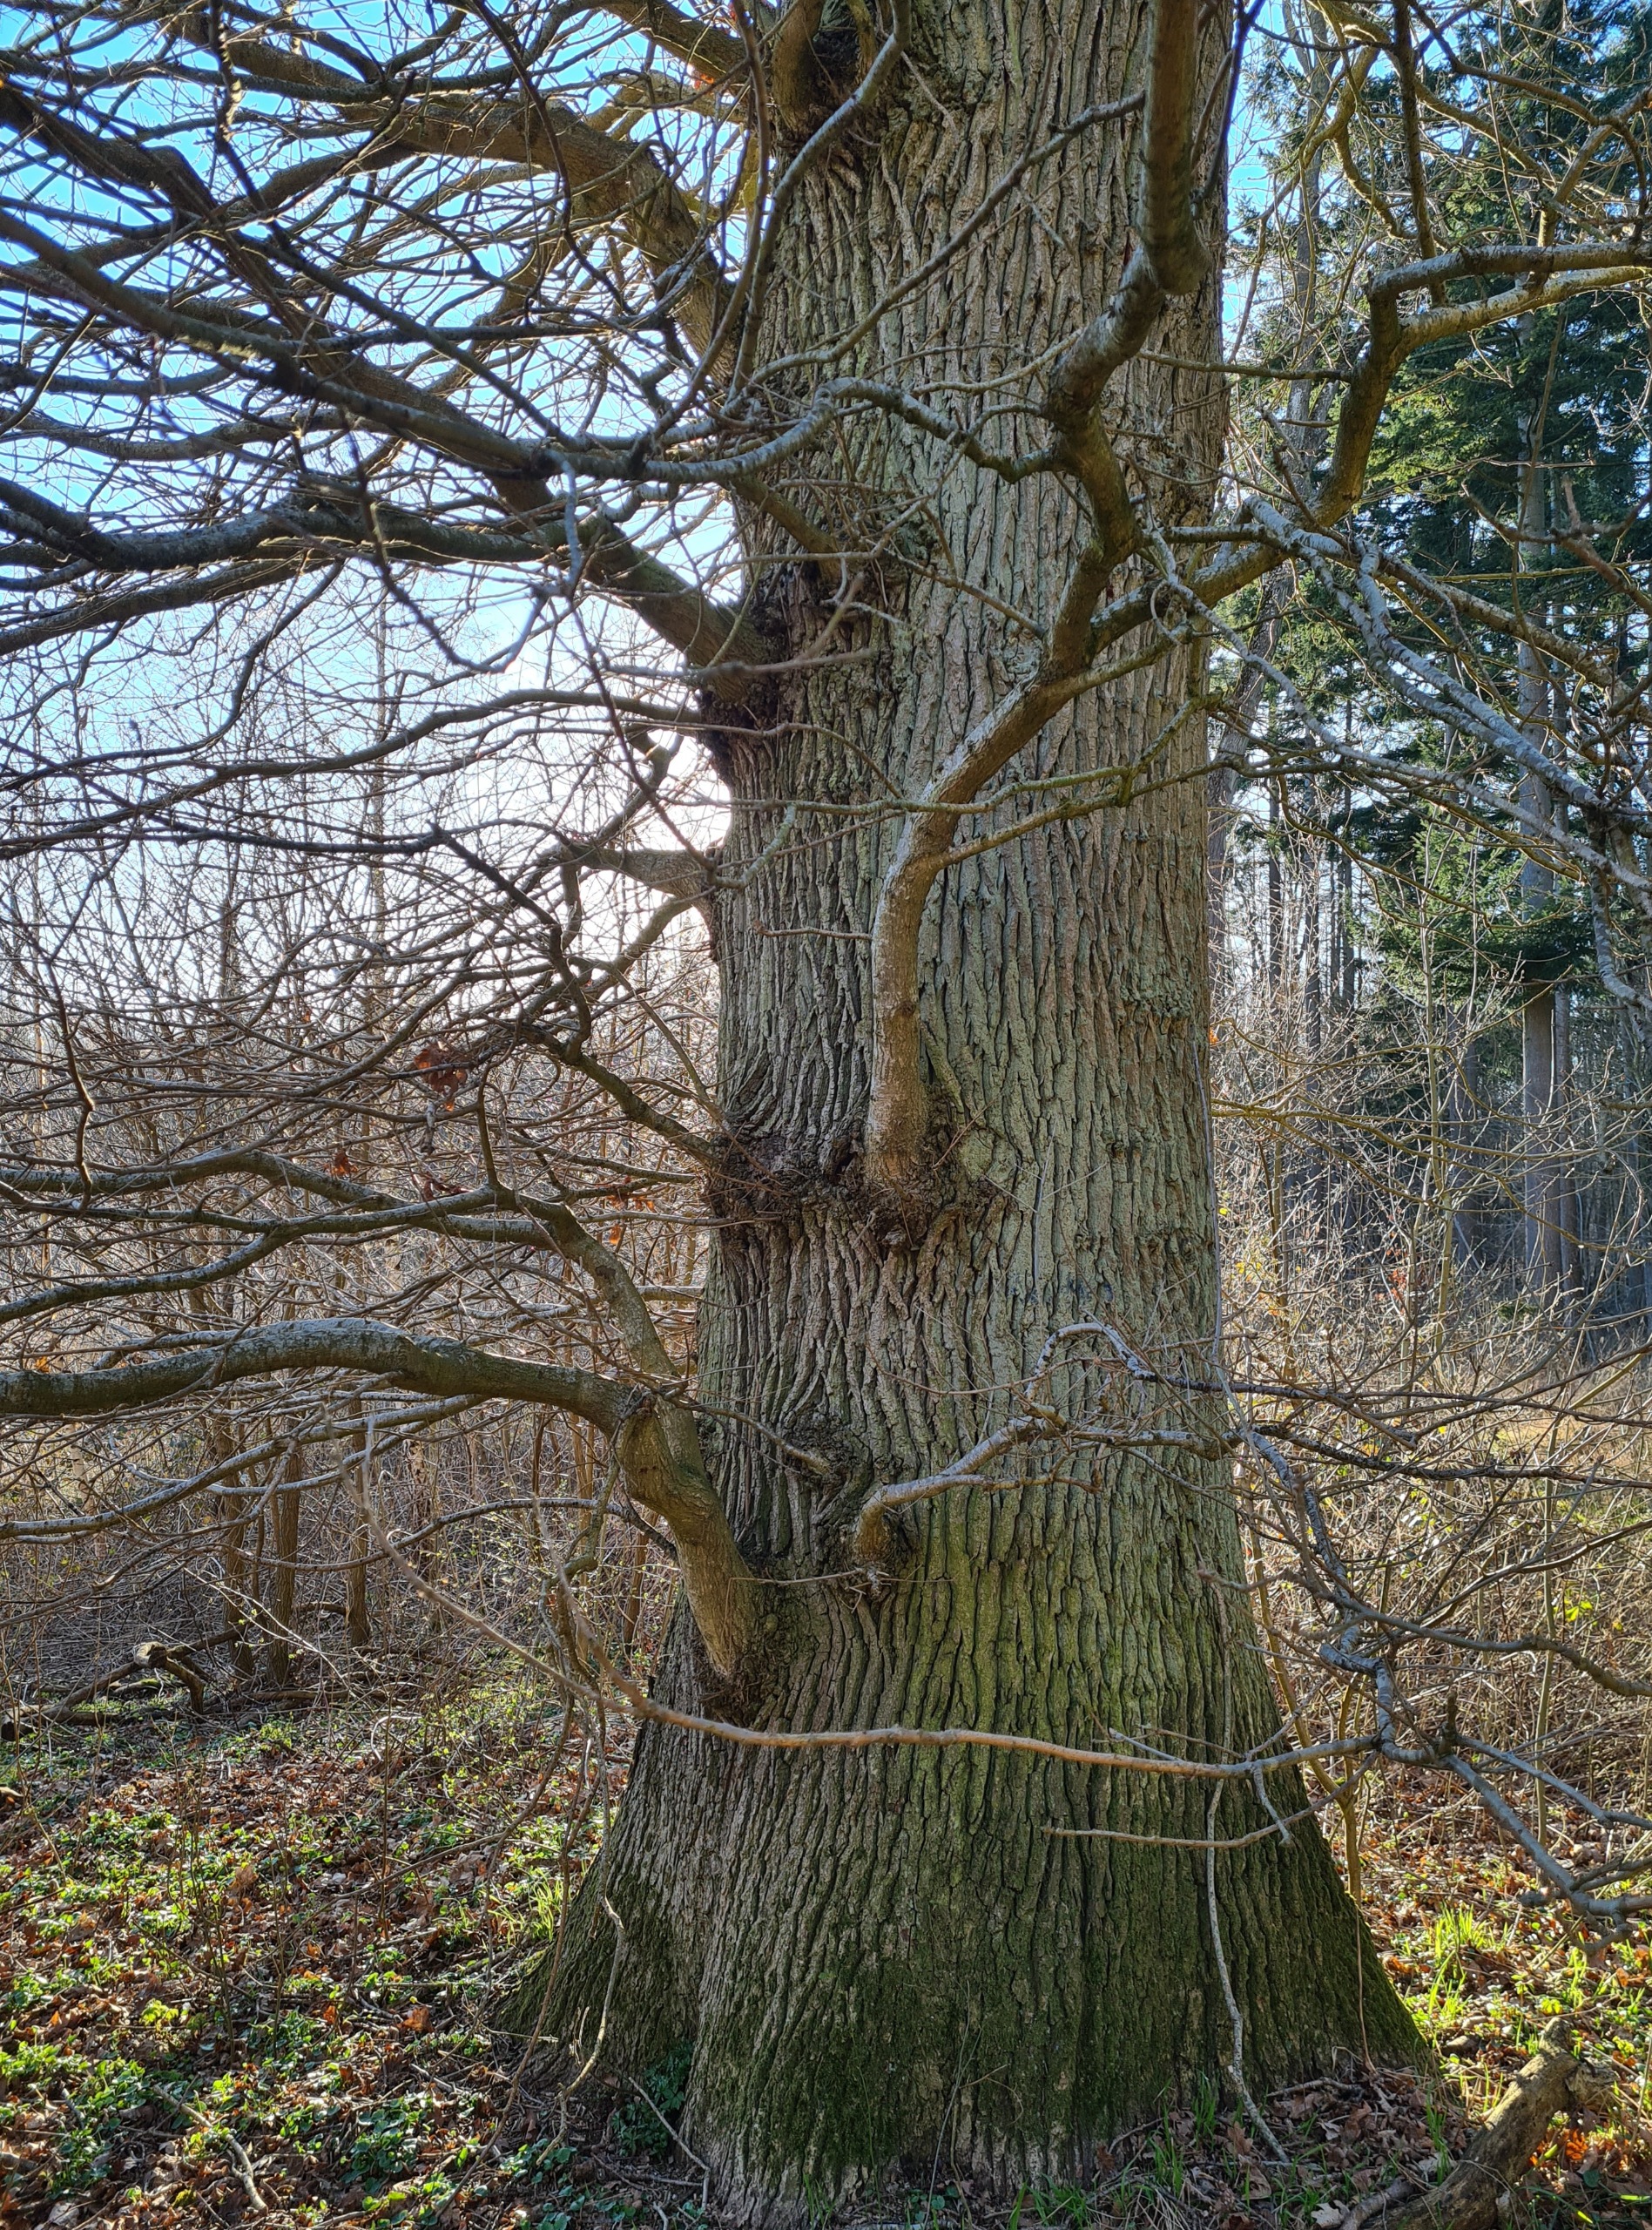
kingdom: Plantae
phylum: Tracheophyta
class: Magnoliopsida
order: Fagales
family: Fagaceae
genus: Quercus
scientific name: Quercus robur
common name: Stilk-eg/almindelig eg
